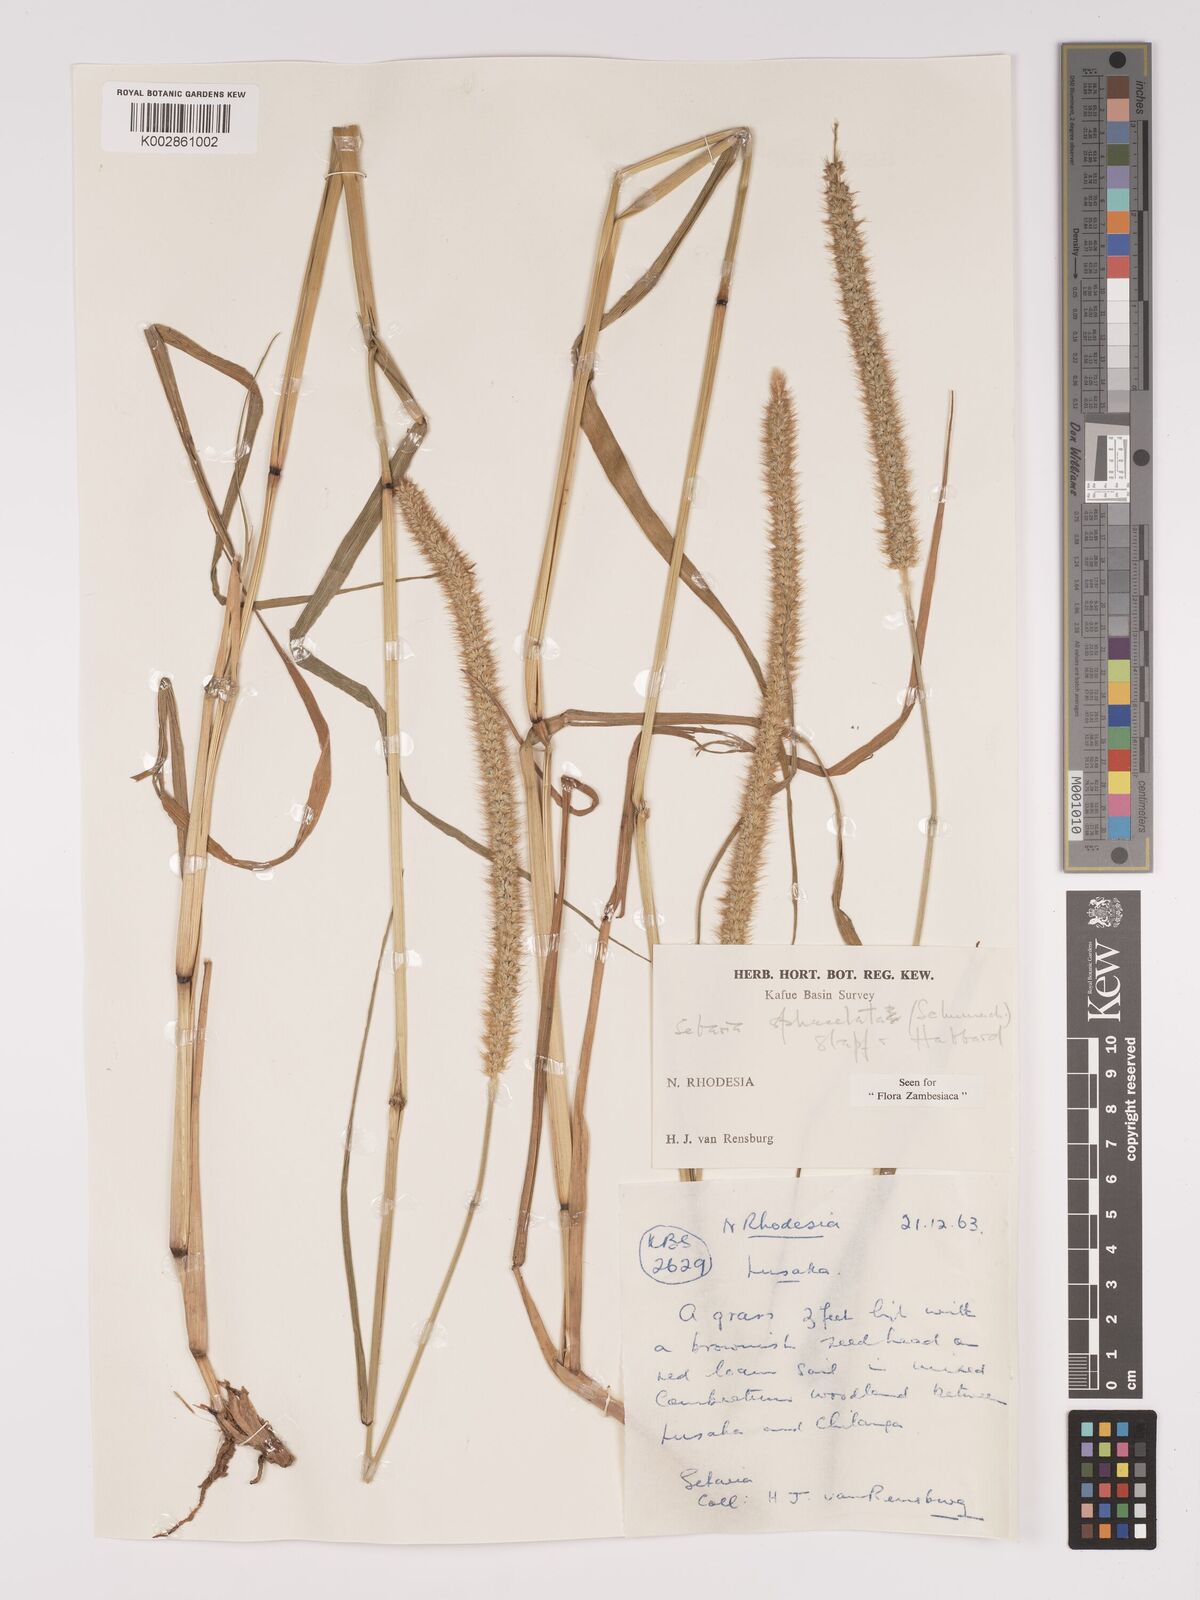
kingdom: Plantae
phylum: Tracheophyta
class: Liliopsida
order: Poales
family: Poaceae
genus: Setaria
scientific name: Setaria sphacelata
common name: African bristlegrass
